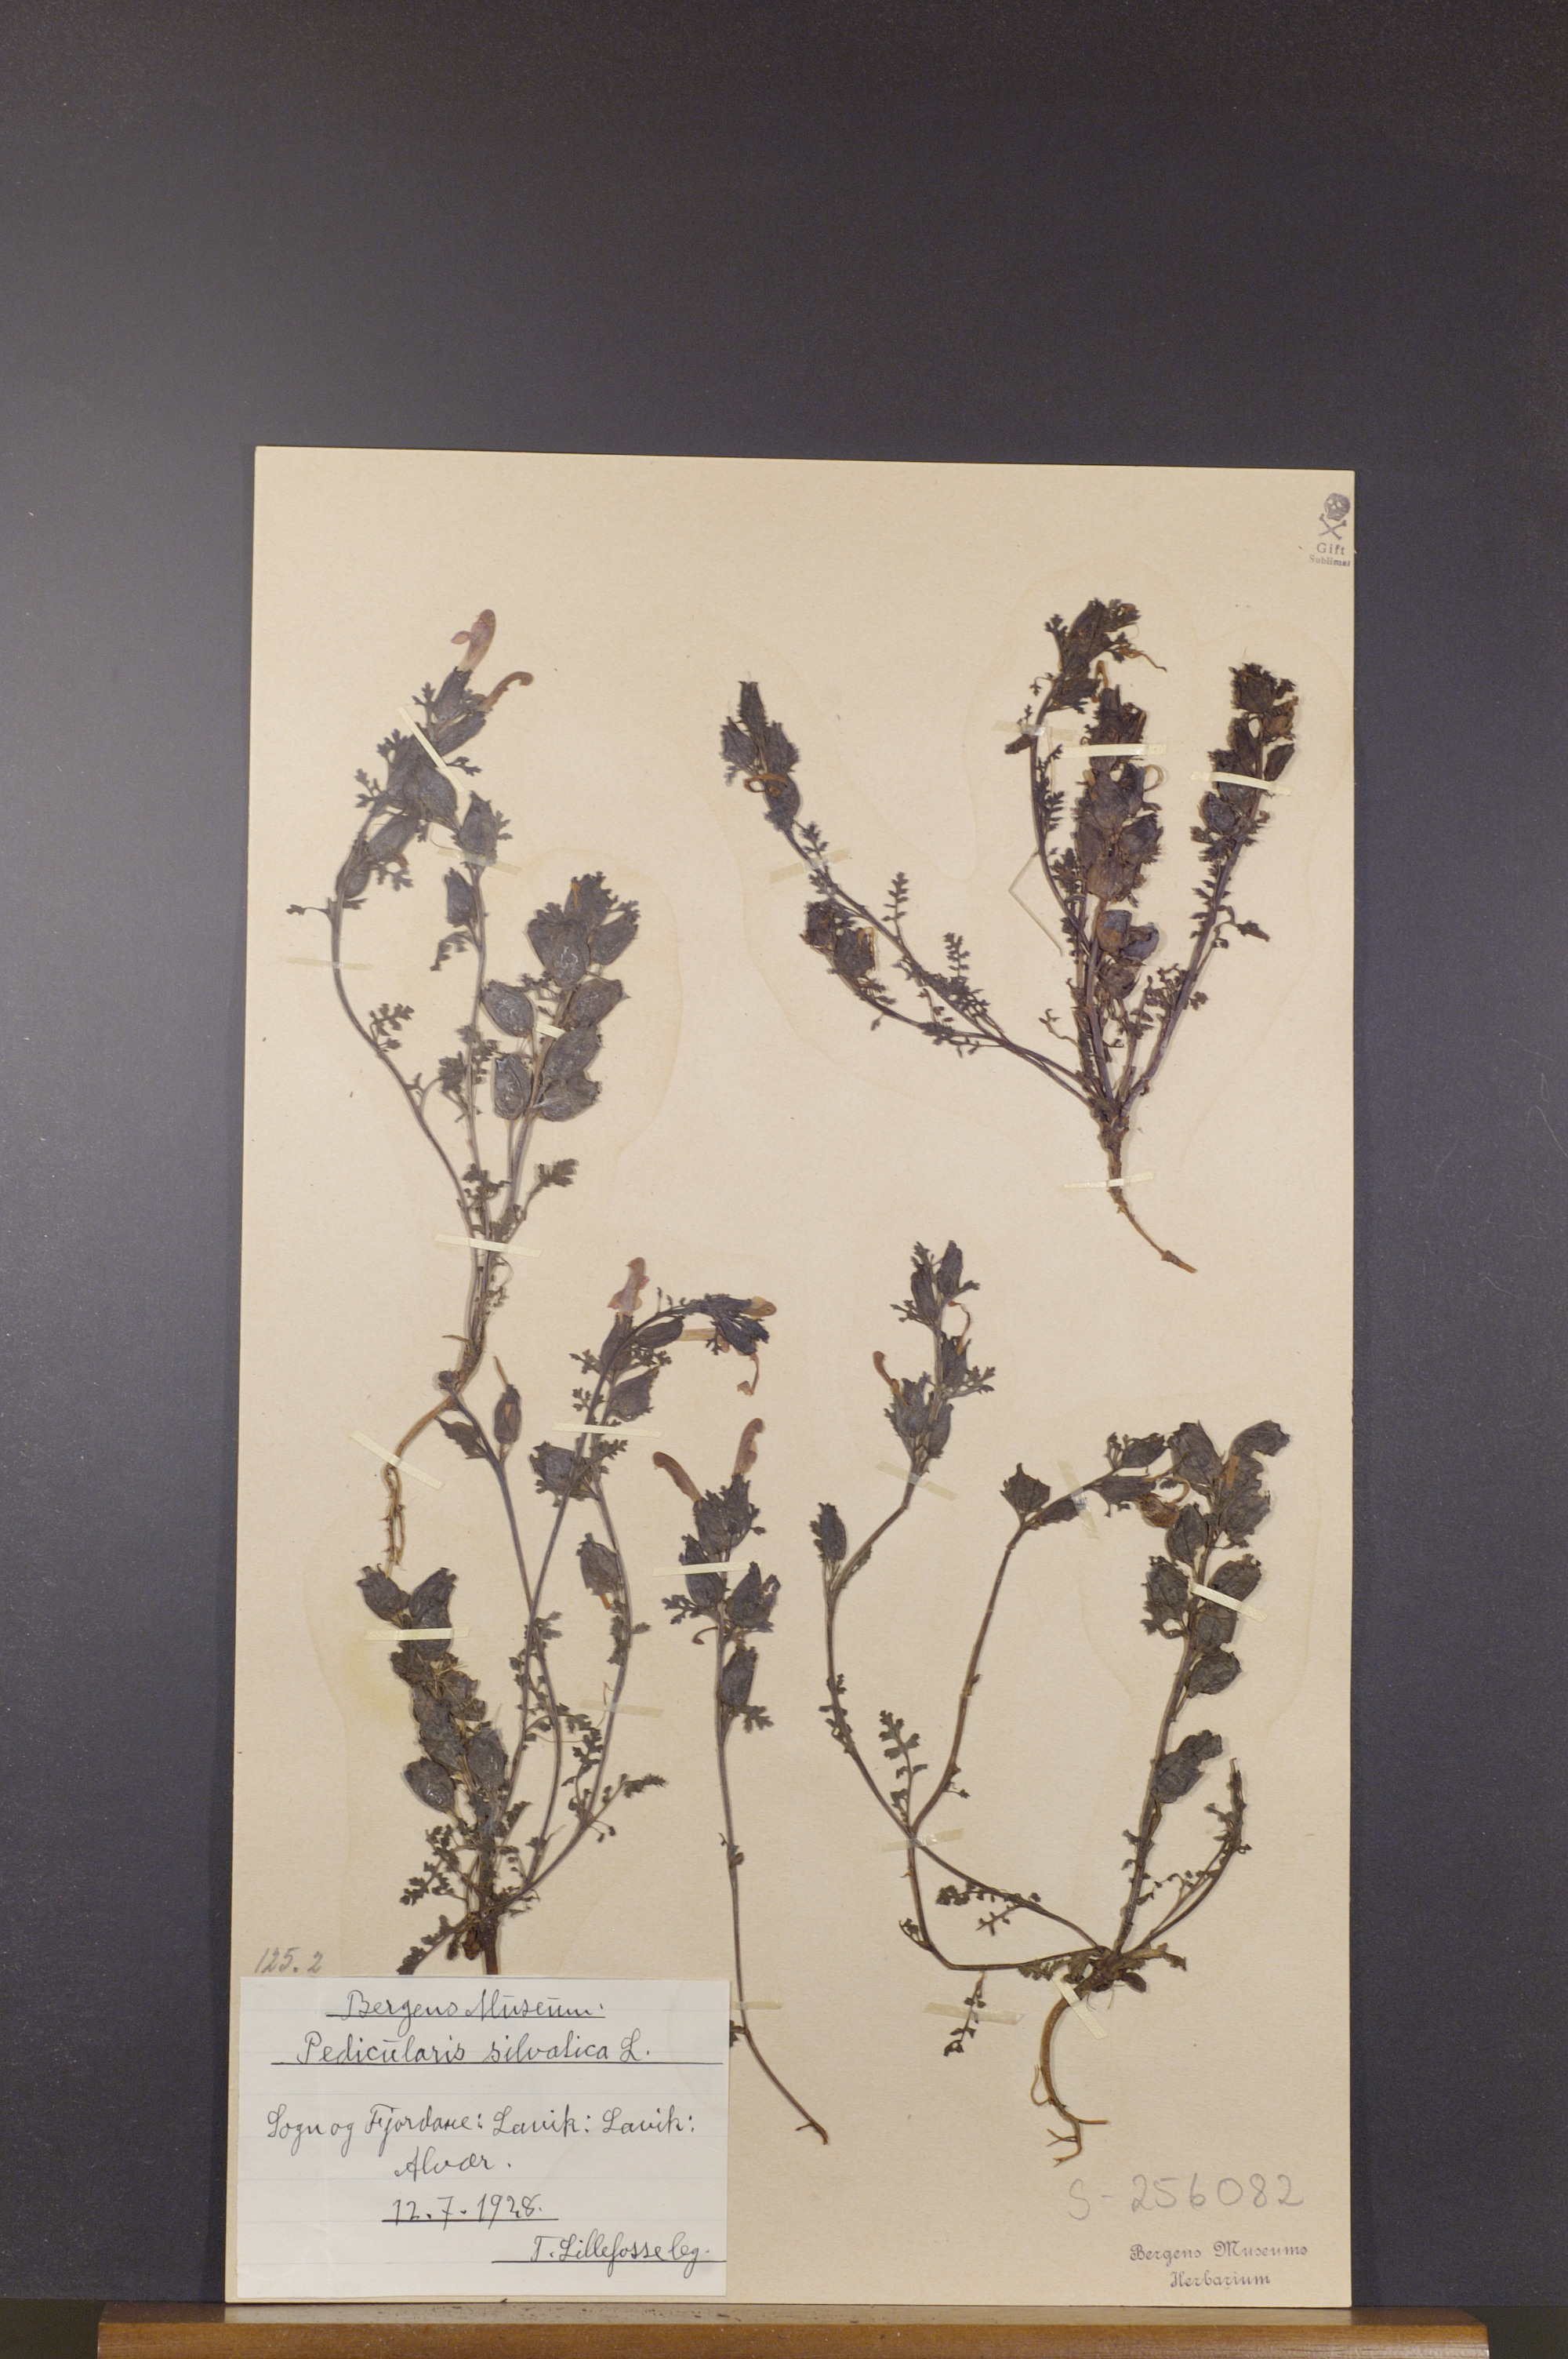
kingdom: Plantae
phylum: Tracheophyta
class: Magnoliopsida
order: Lamiales
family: Orobanchaceae
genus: Pedicularis
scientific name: Pedicularis sylvatica
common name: Lousewort
